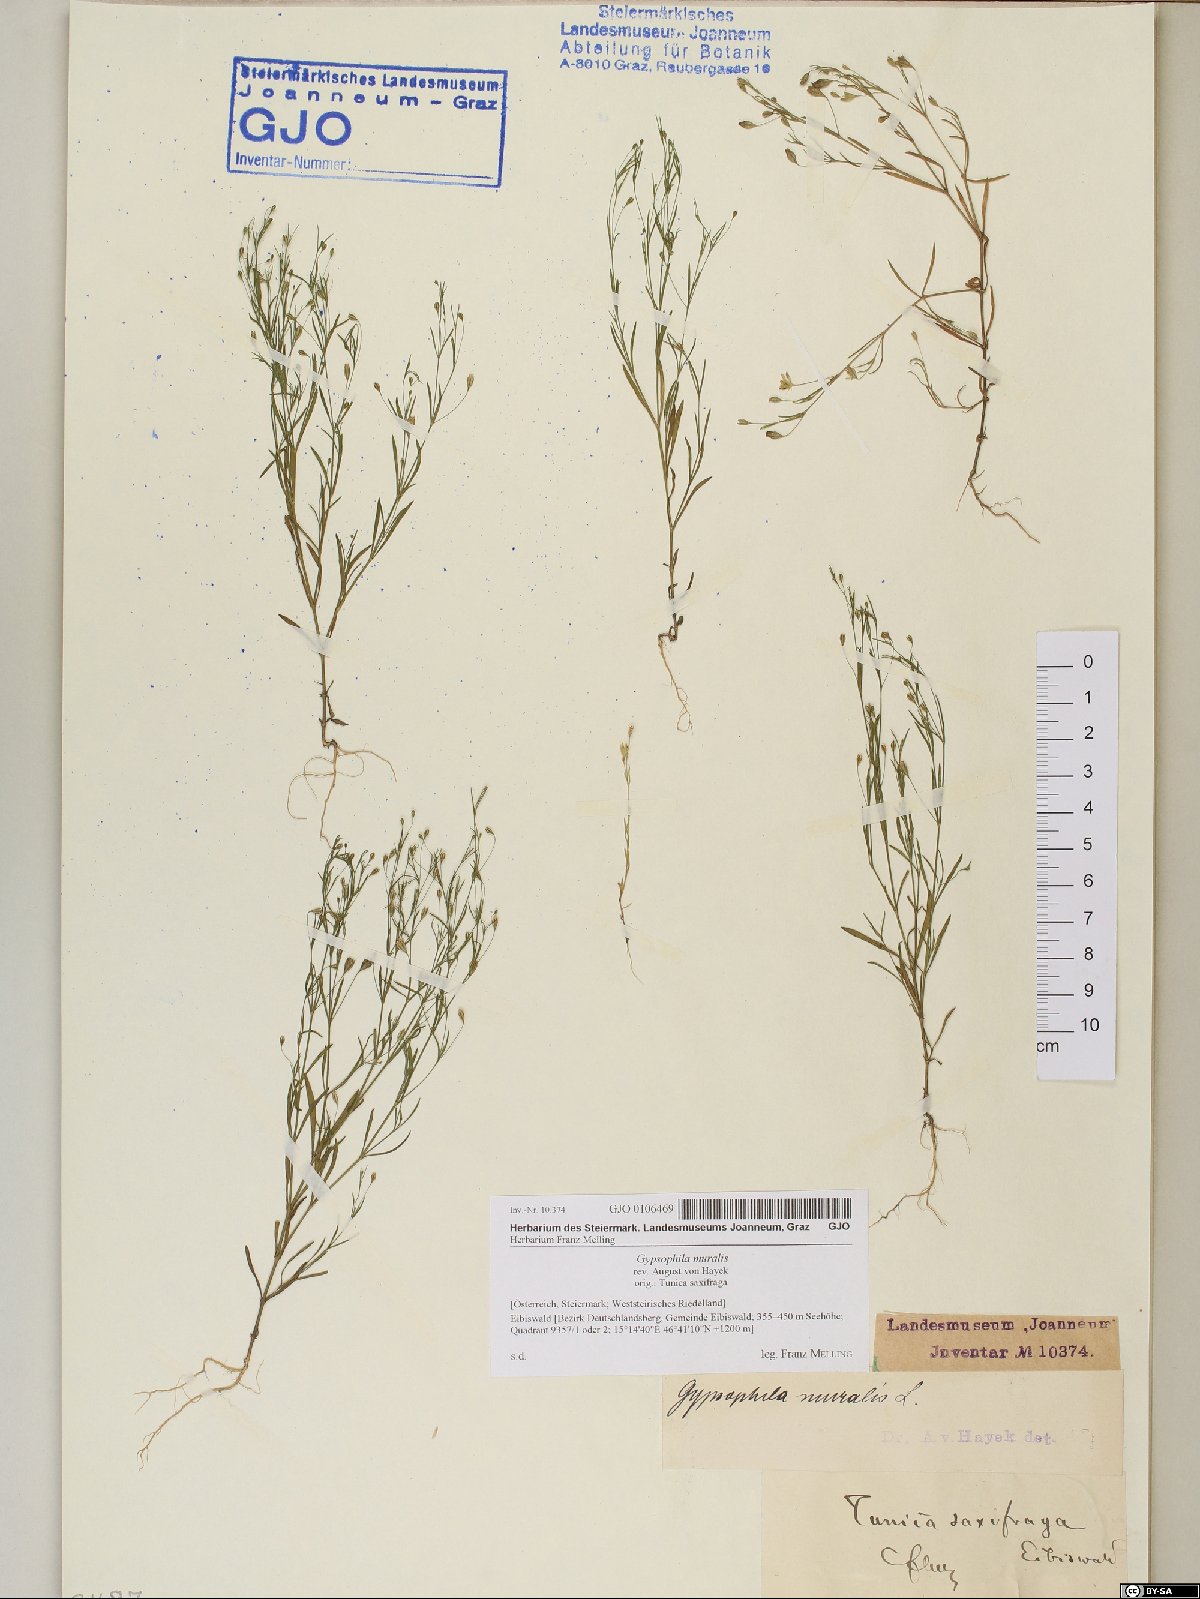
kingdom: Plantae
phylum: Tracheophyta
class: Magnoliopsida
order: Caryophyllales
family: Caryophyllaceae
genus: Psammophiliella
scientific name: Psammophiliella muralis
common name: Cushion baby's-breath
